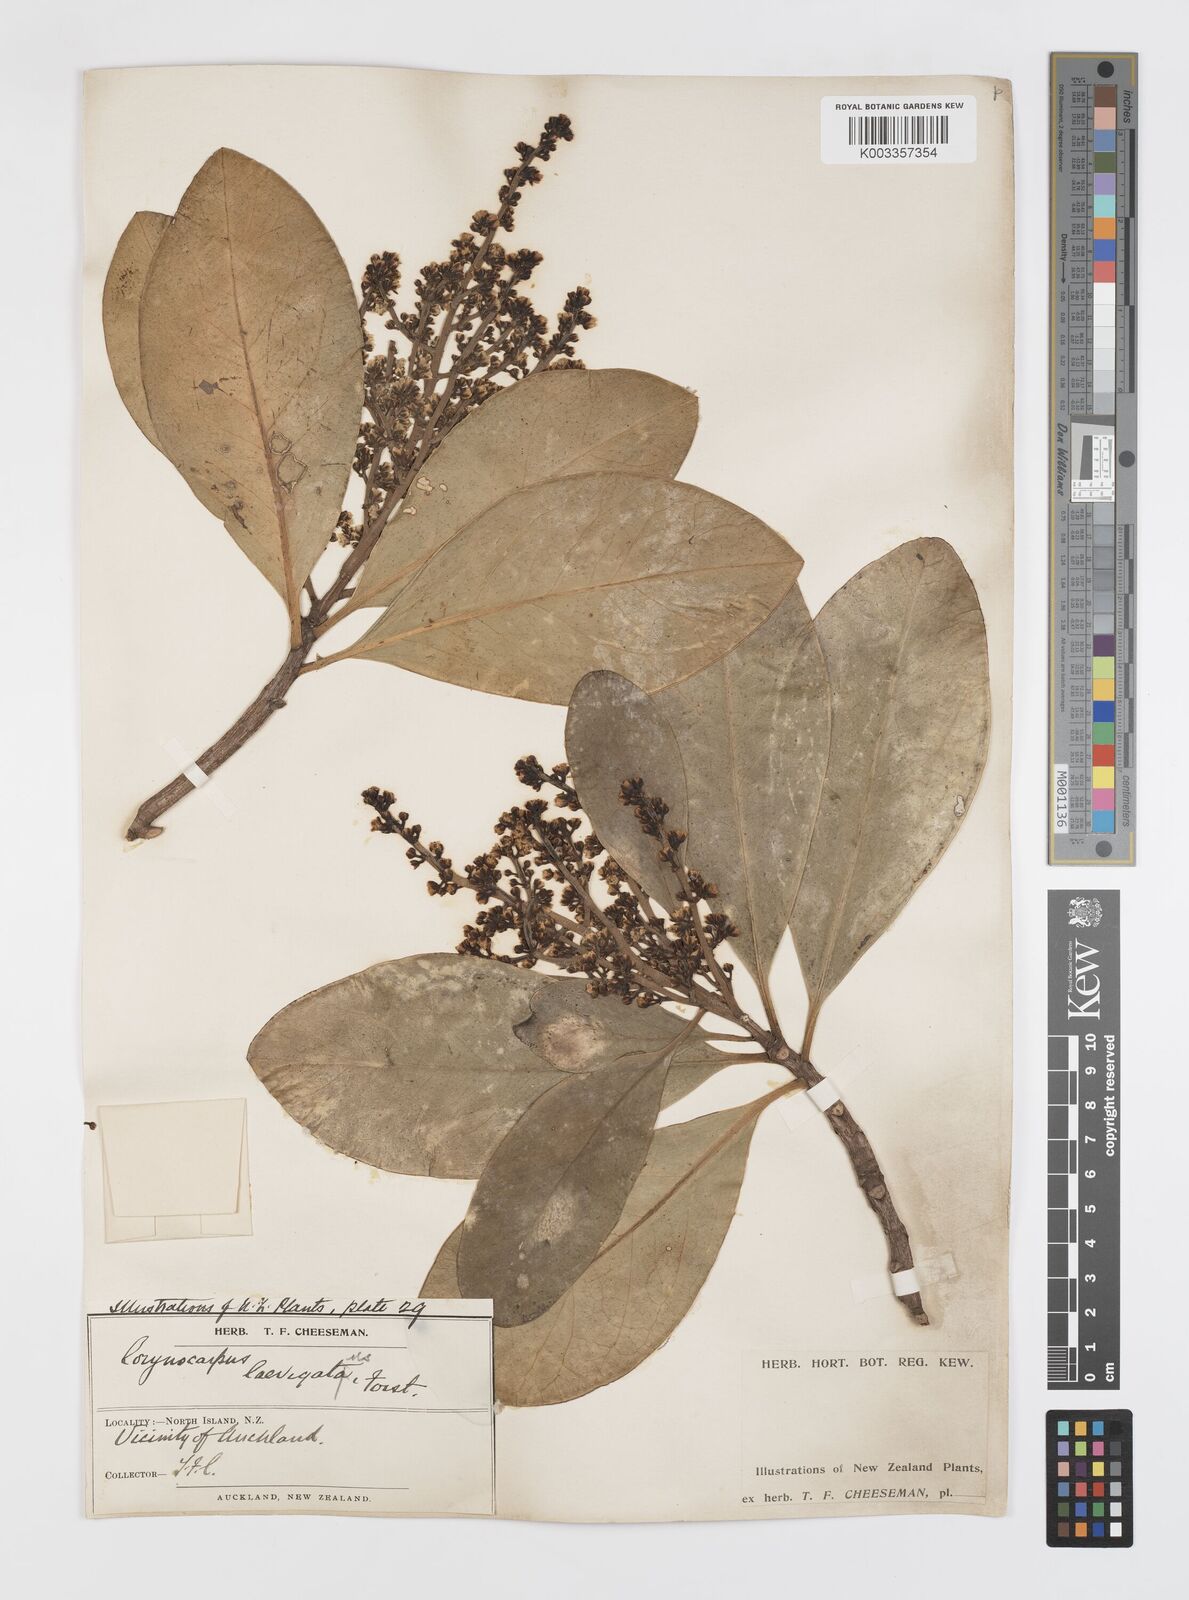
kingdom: Plantae
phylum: Tracheophyta
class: Magnoliopsida
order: Cucurbitales
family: Corynocarpaceae
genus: Corynocarpus
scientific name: Corynocarpus laevigatus
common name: New zealand laurel
